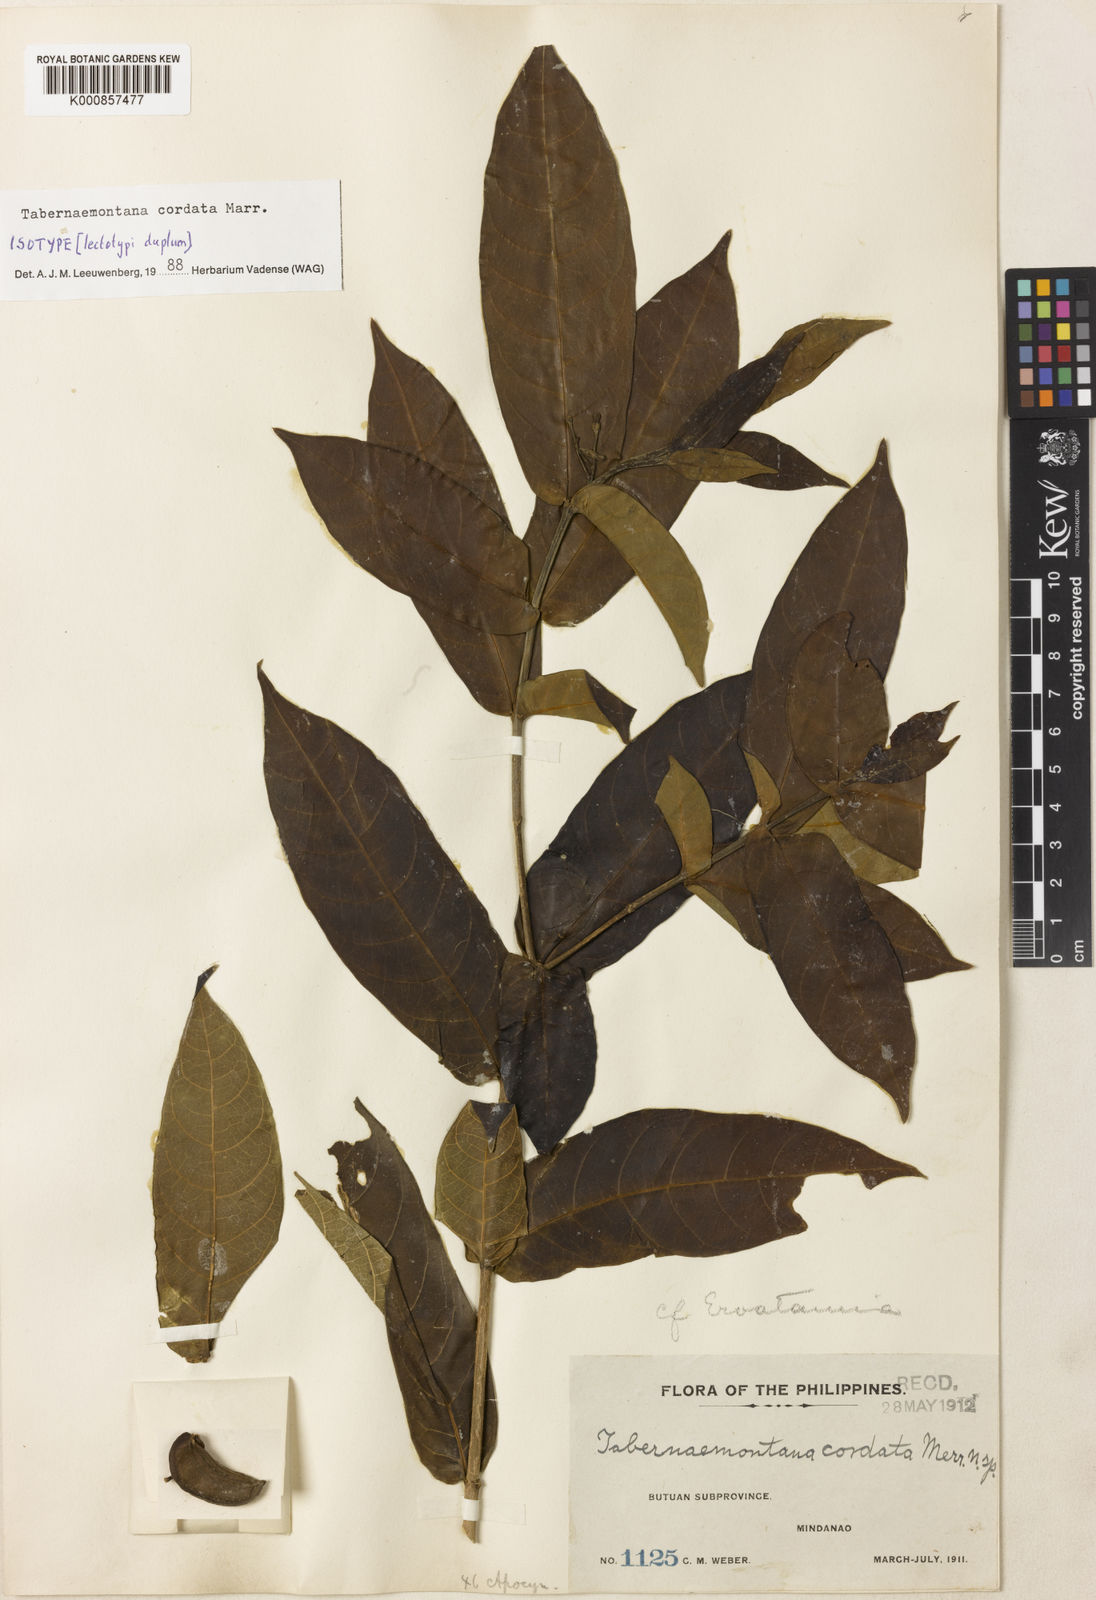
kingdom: Plantae
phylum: Tracheophyta
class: Magnoliopsida
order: Gentianales
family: Apocynaceae
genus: Tabernaemontana
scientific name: Tabernaemontana cordata
